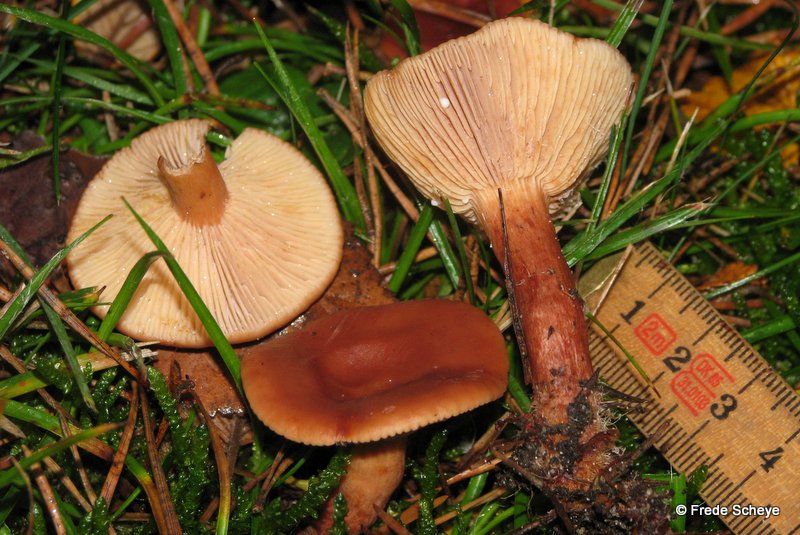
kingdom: Fungi
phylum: Basidiomycota
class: Agaricomycetes
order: Russulales
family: Russulaceae
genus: Lactarius
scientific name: Lactarius rufus
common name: rødbrun mælkehat
